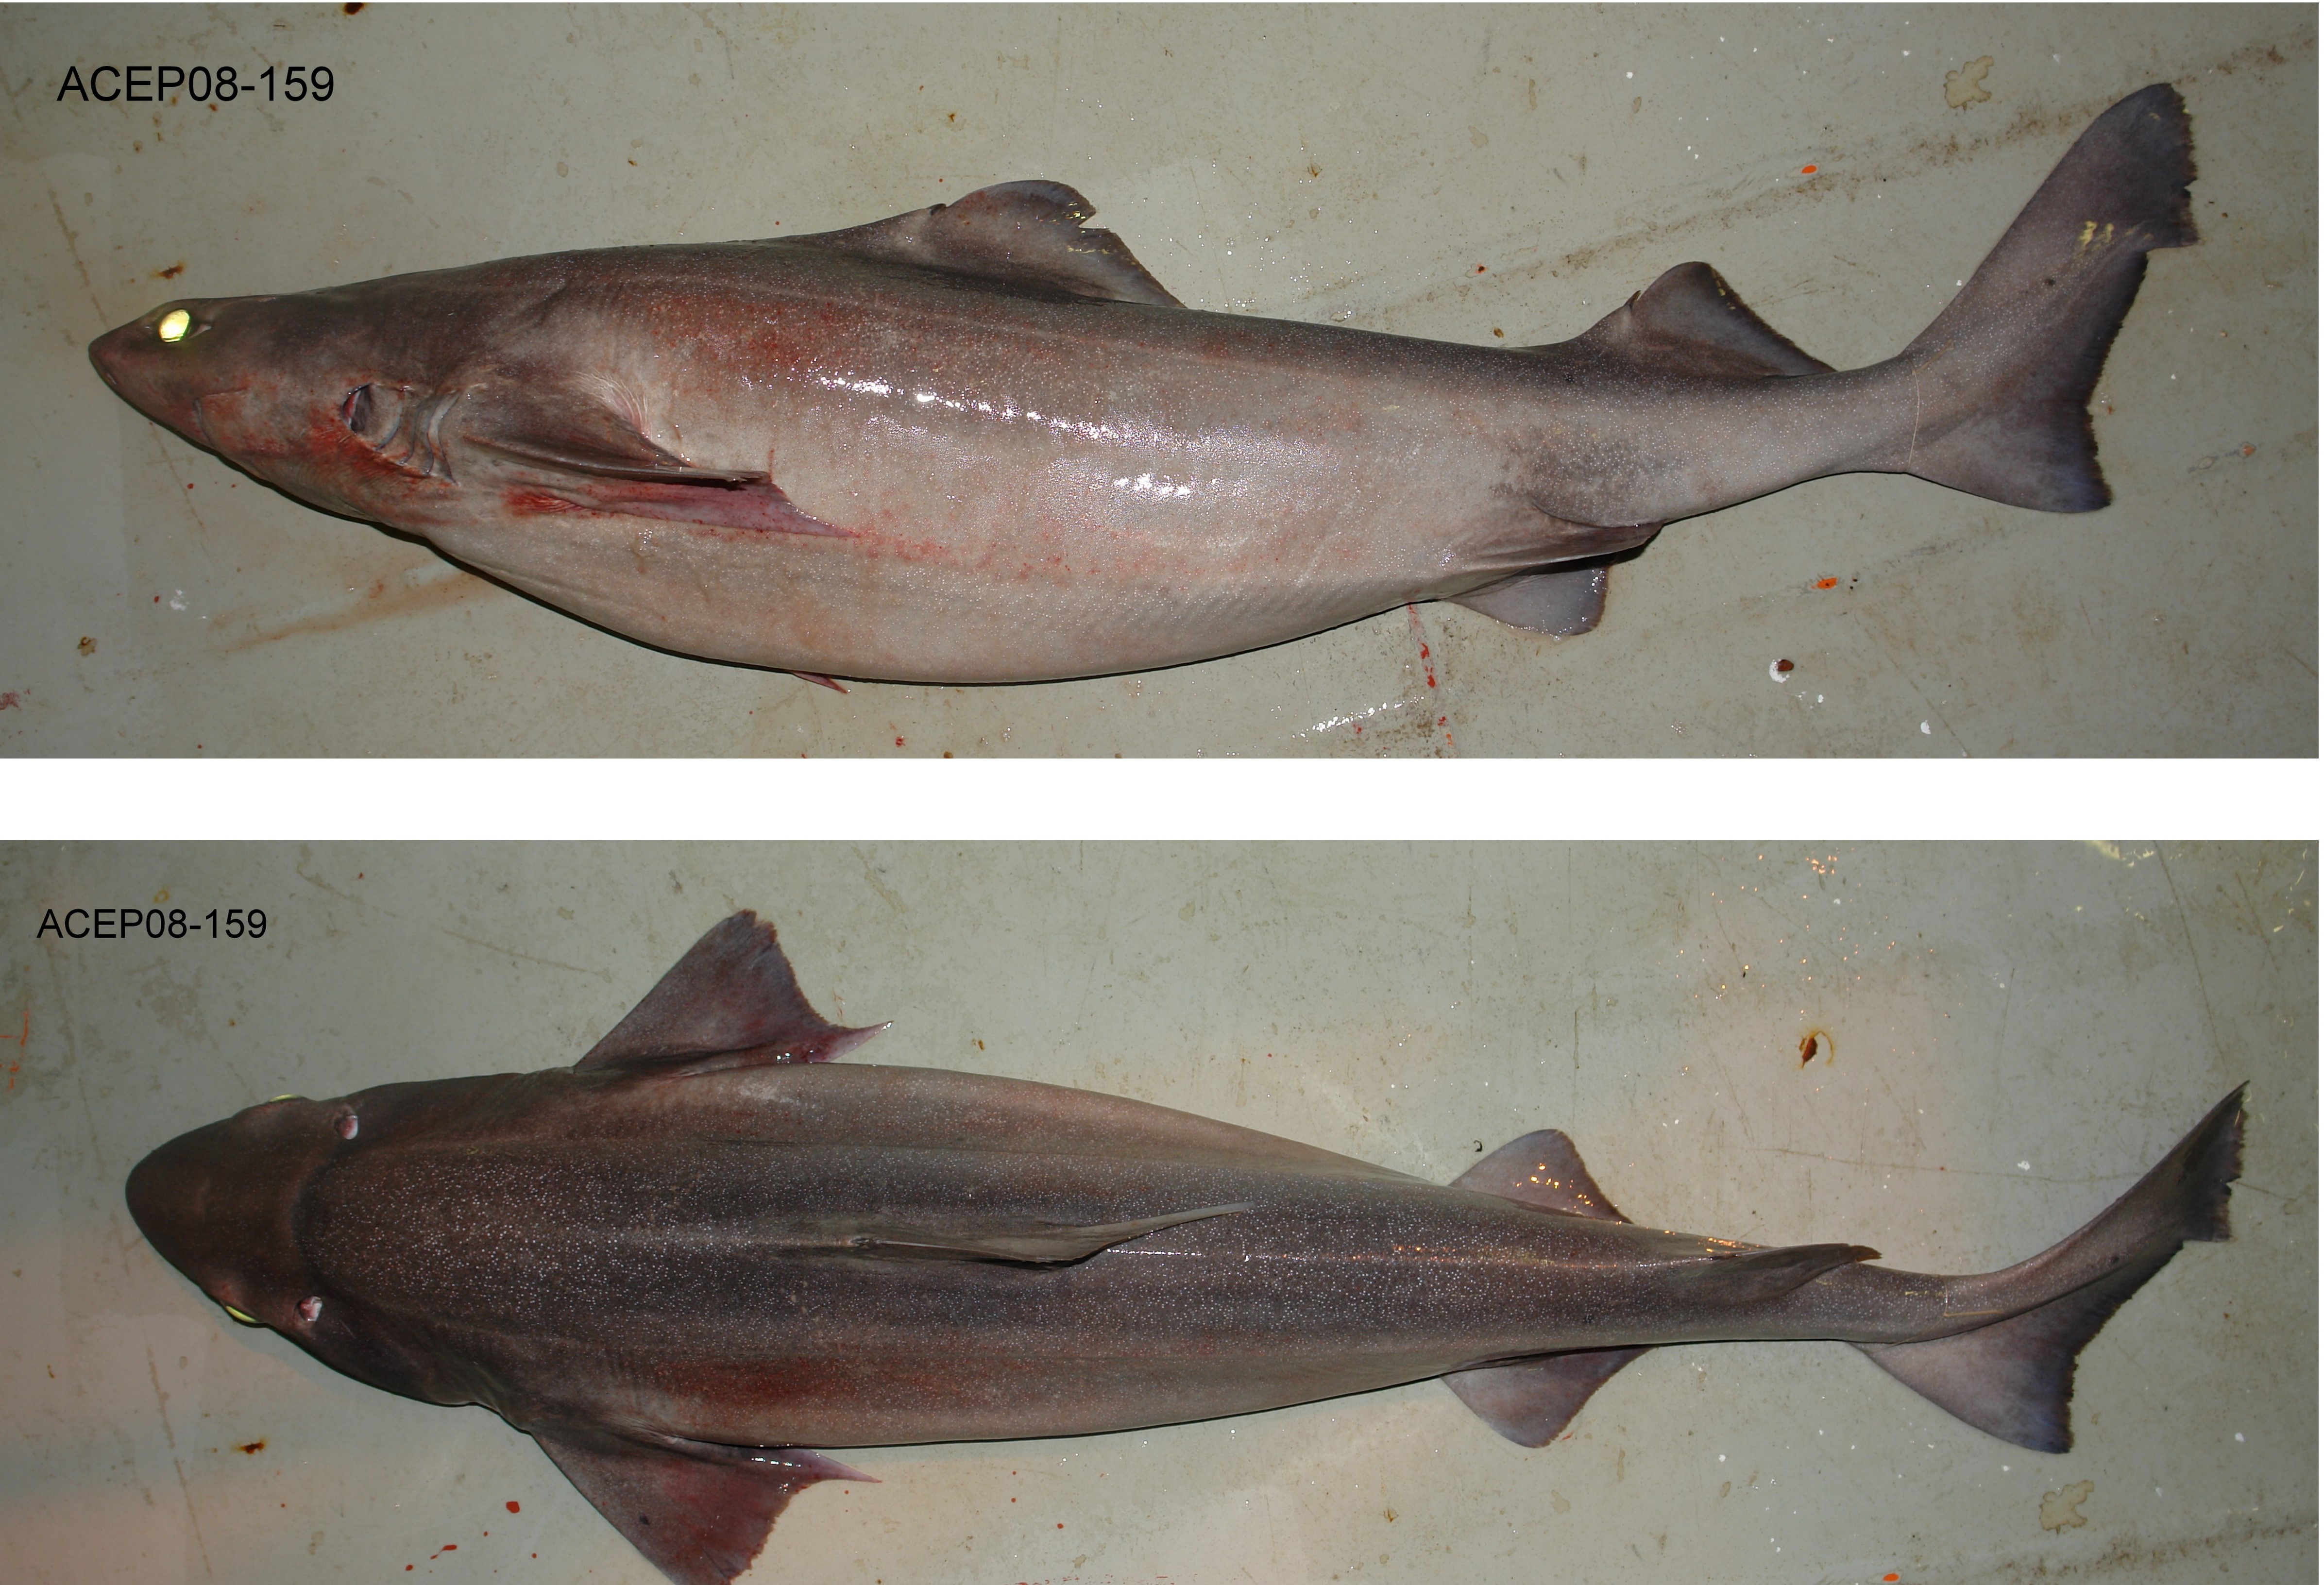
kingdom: Animalia
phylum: Chordata
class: Elasmobranchii
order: Squaliformes
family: Centrophoridae
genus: Centrophorus
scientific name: Centrophorus lusitanicus
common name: Lowfin gulper shark
